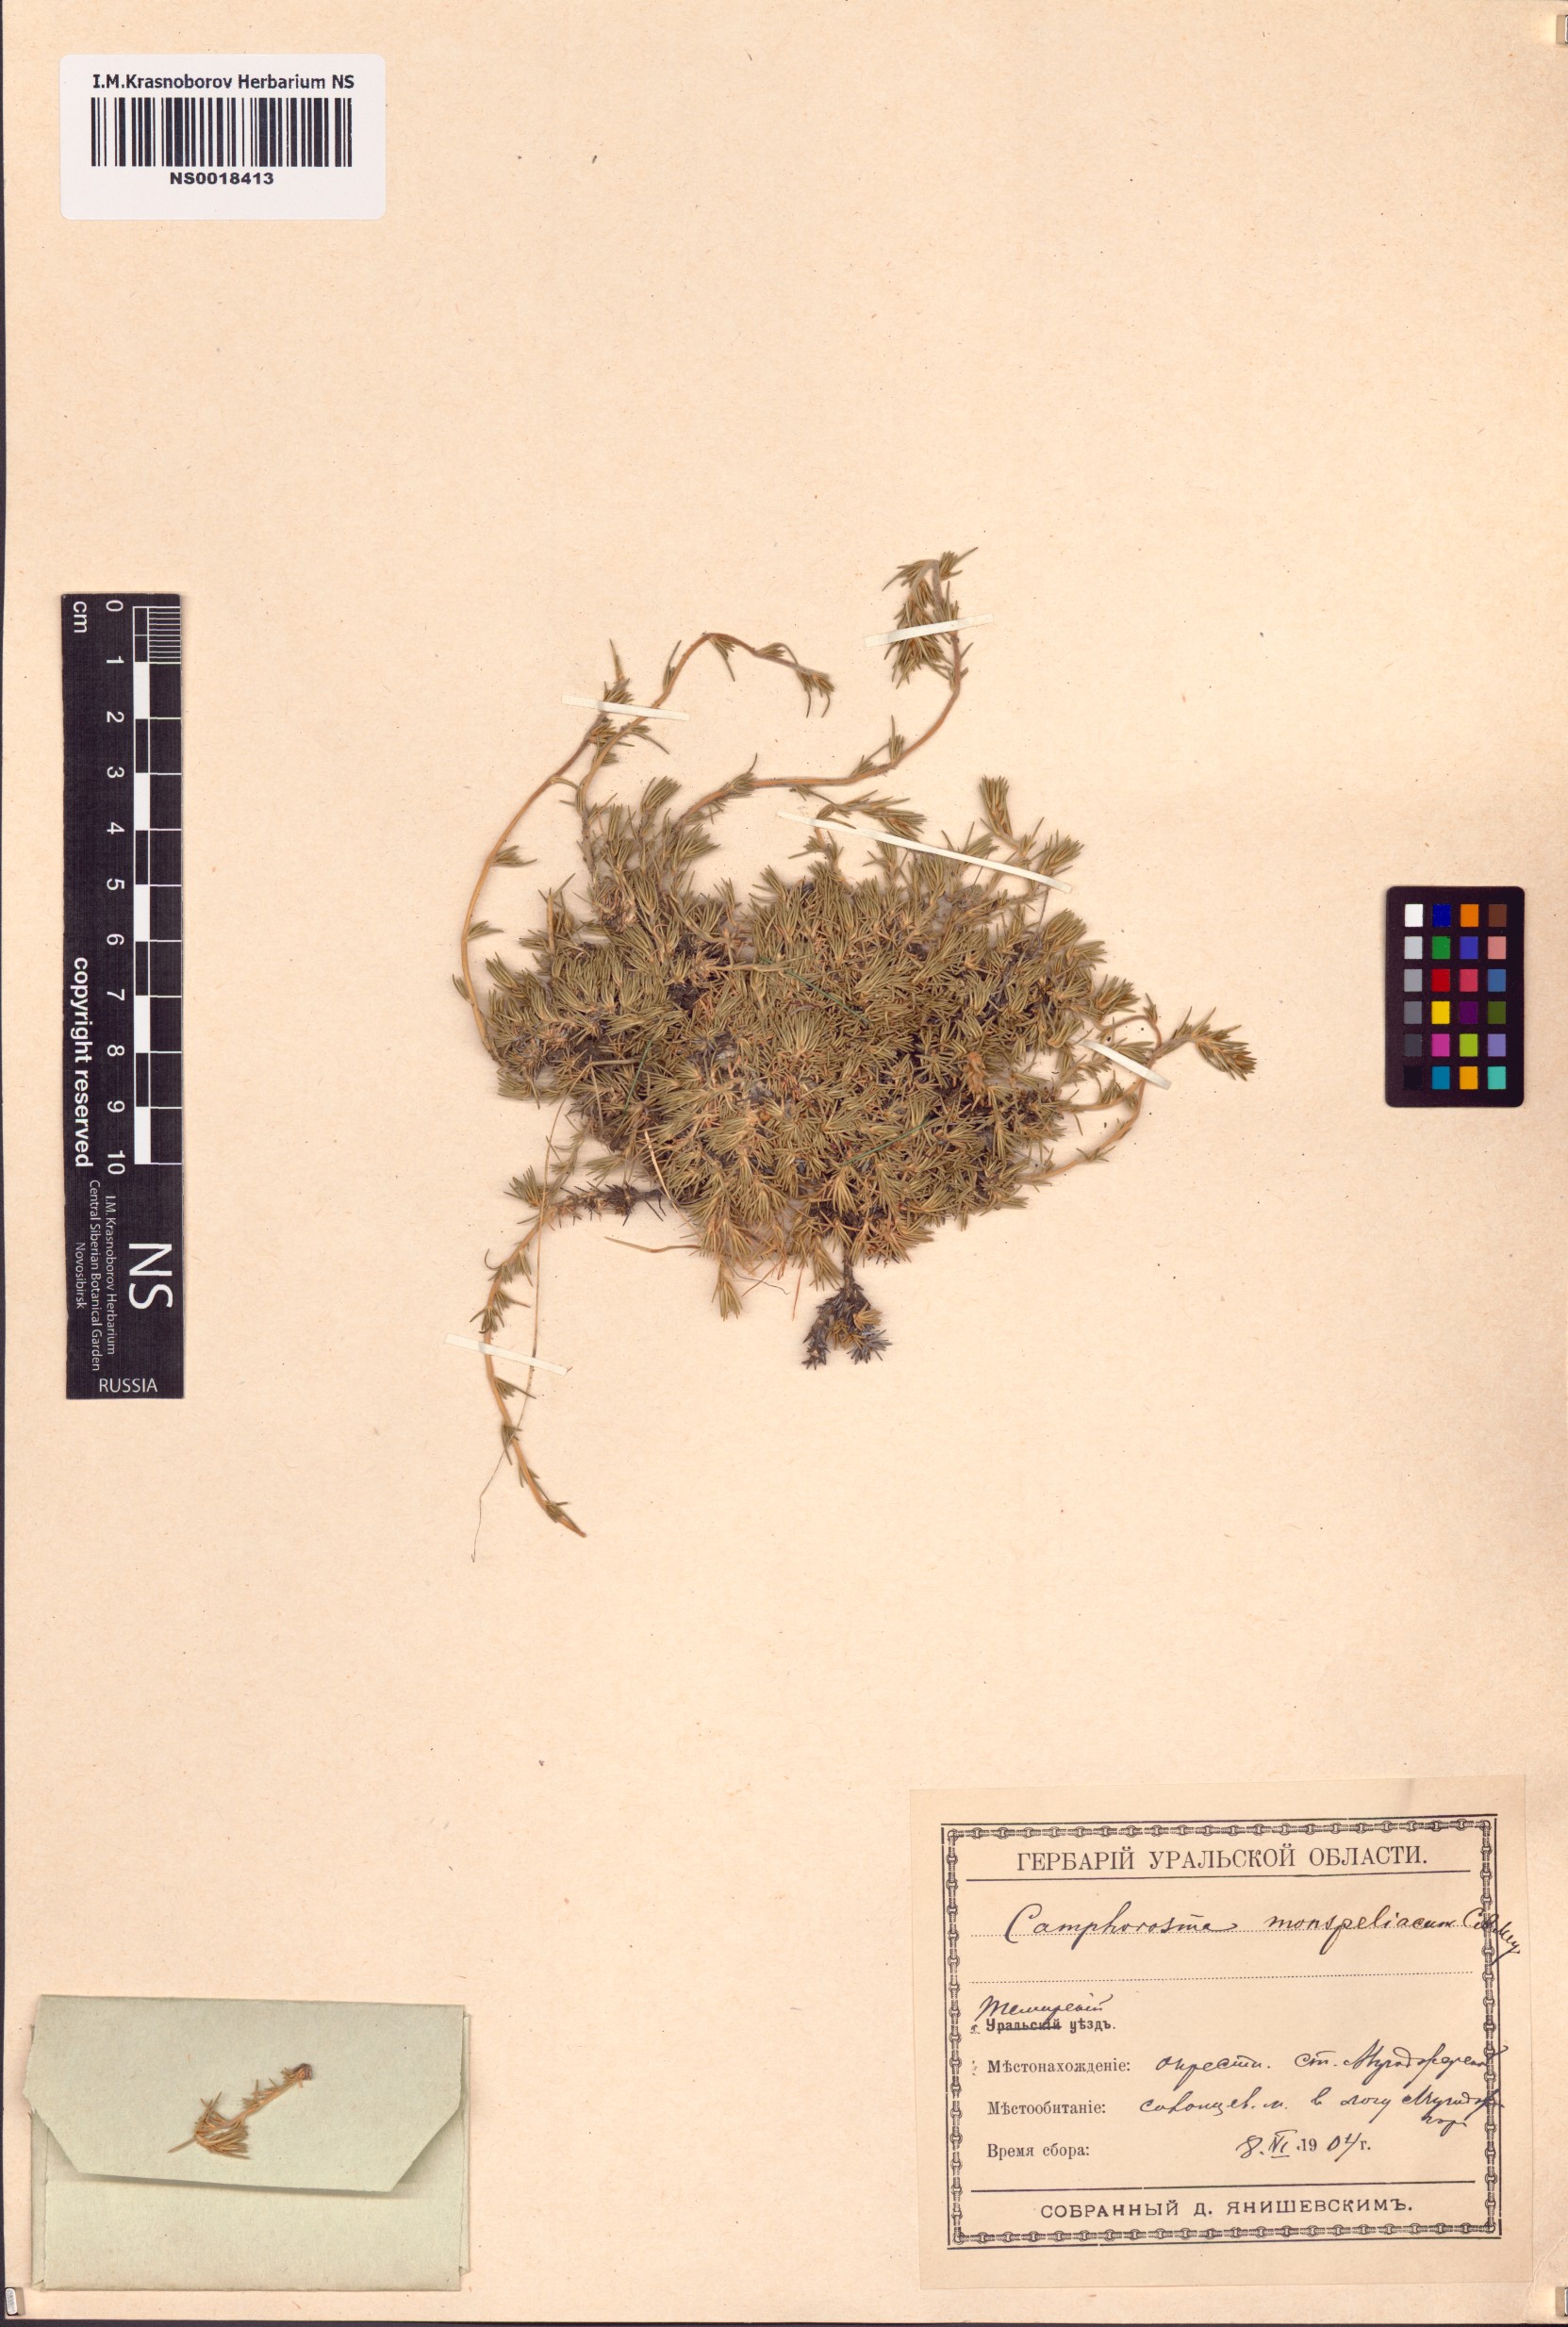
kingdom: Plantae
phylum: Tracheophyta
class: Magnoliopsida
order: Caryophyllales
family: Amaranthaceae
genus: Camphorosma
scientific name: Camphorosma monspeliaca
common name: Camphorfume
